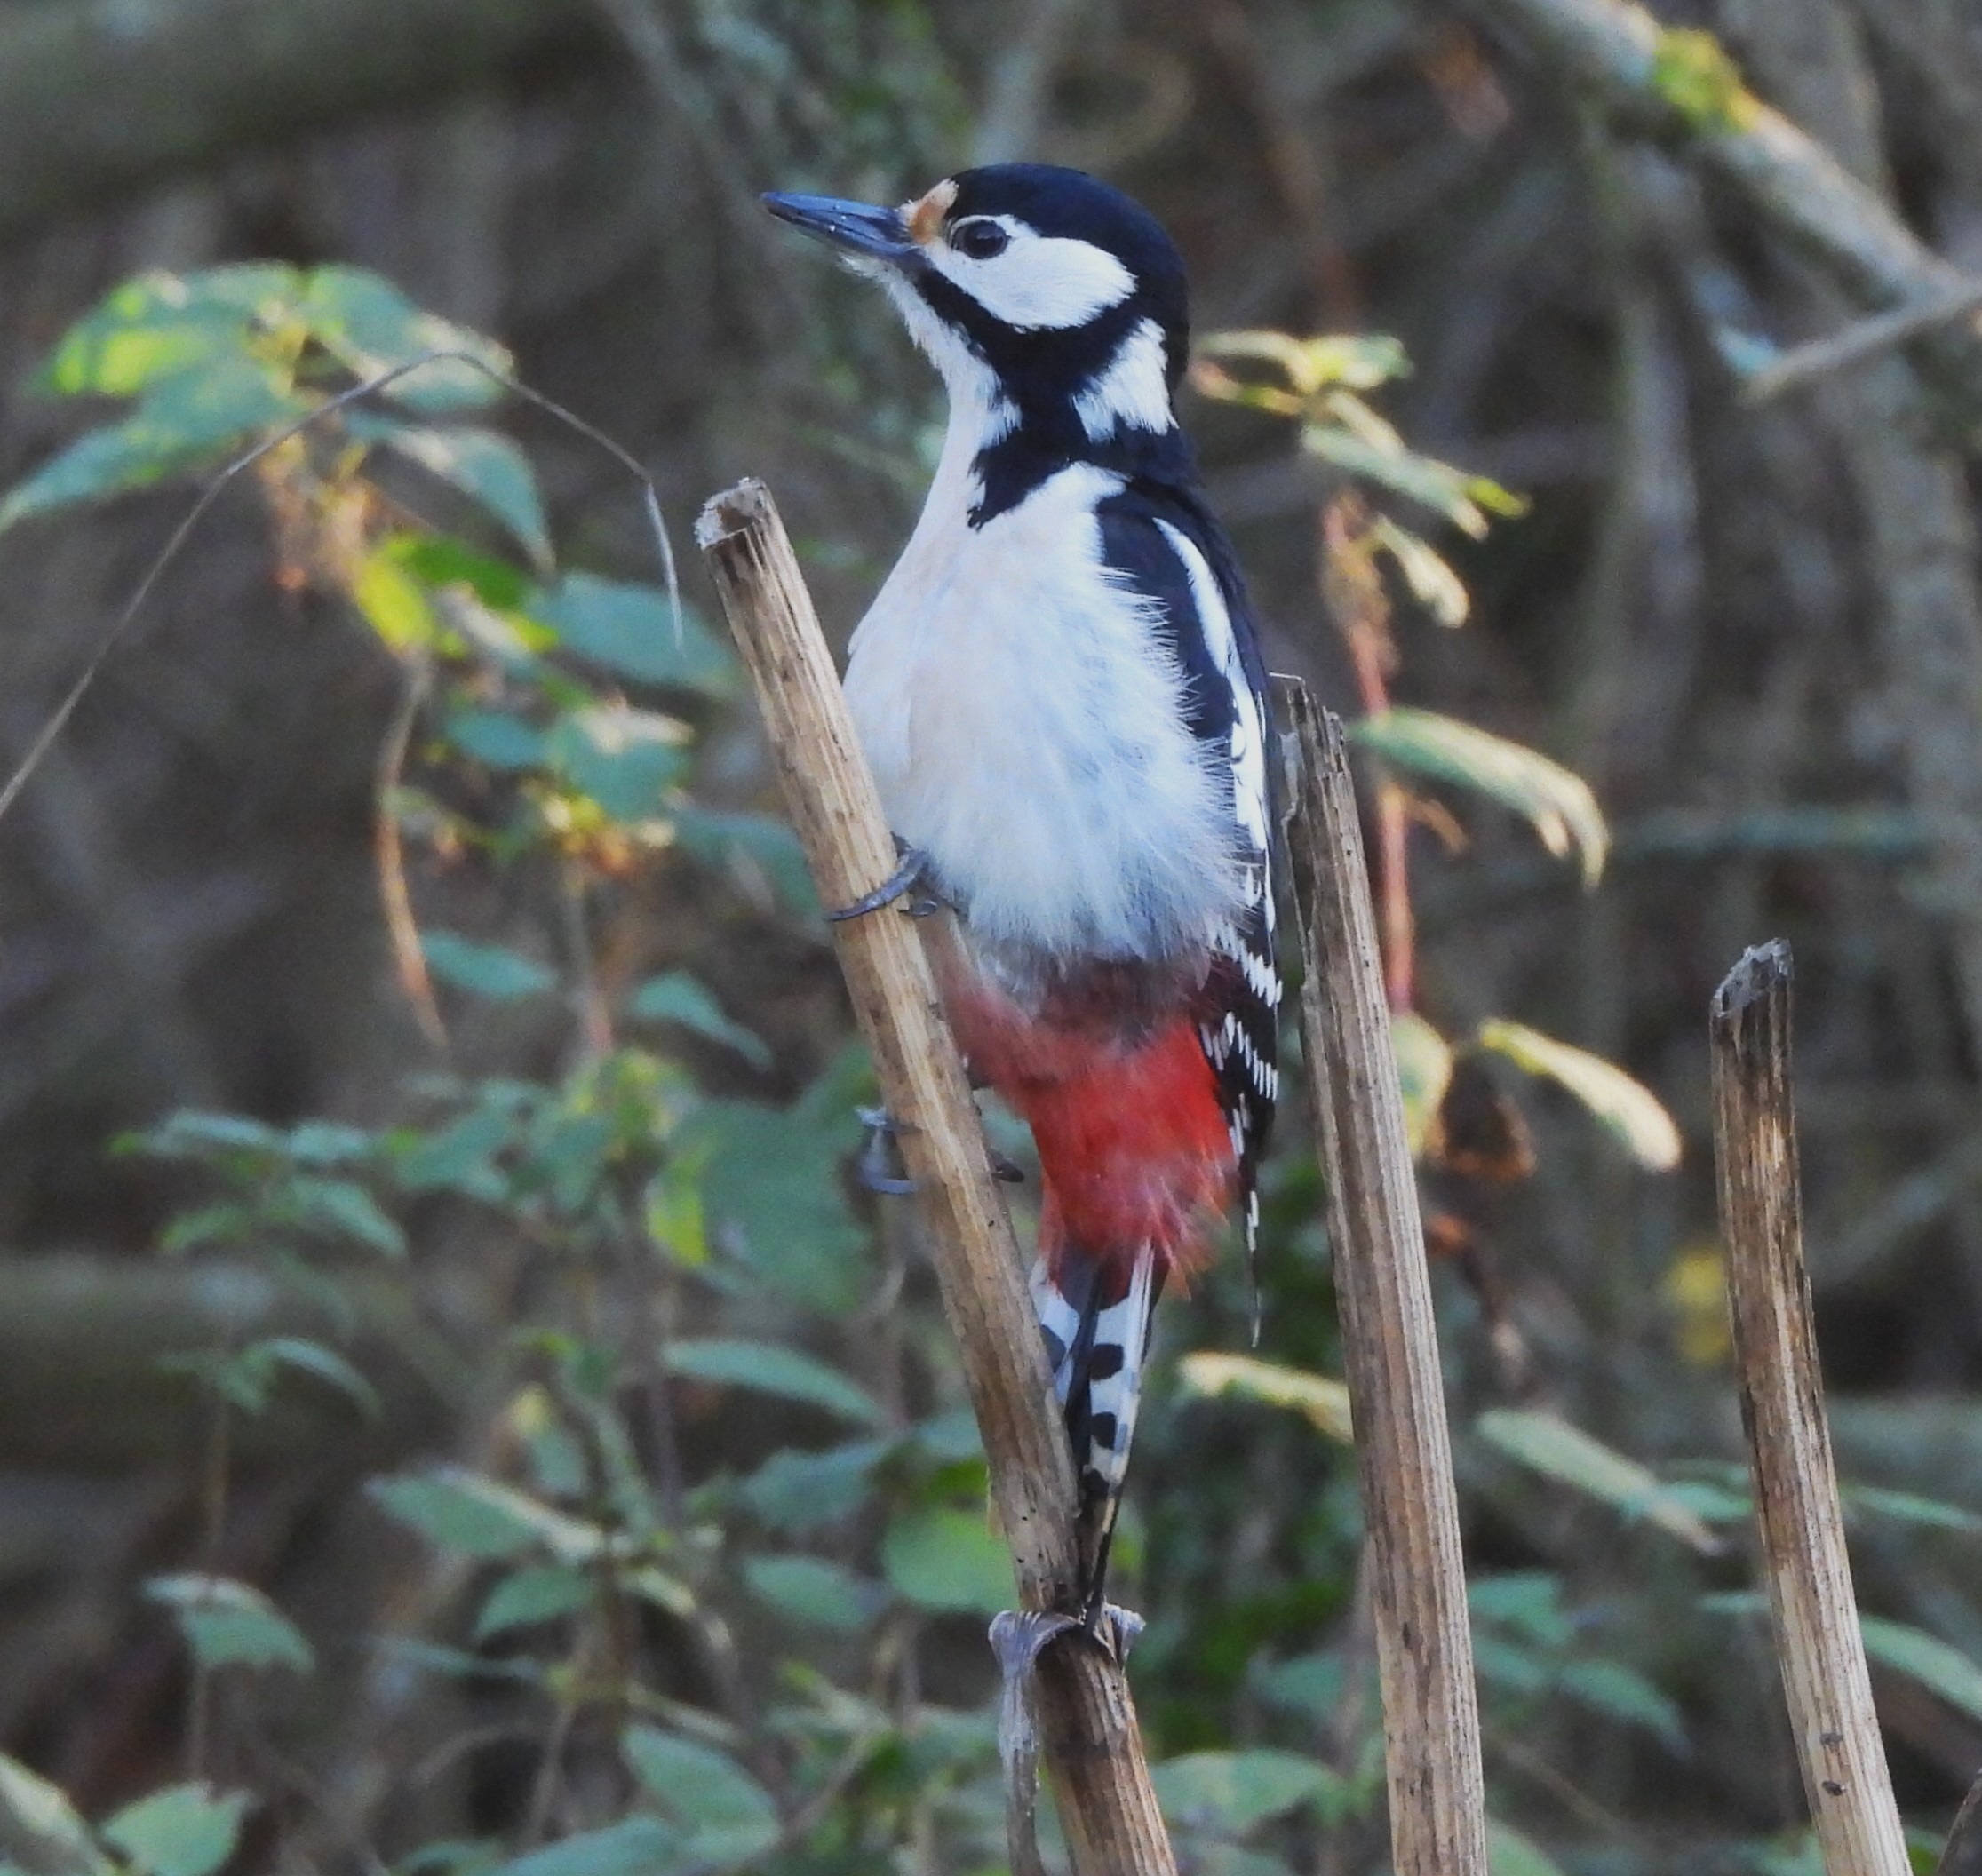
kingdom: Animalia
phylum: Chordata
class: Aves
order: Piciformes
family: Picidae
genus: Dendrocopos
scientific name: Dendrocopos major
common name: Stor flagspætte
